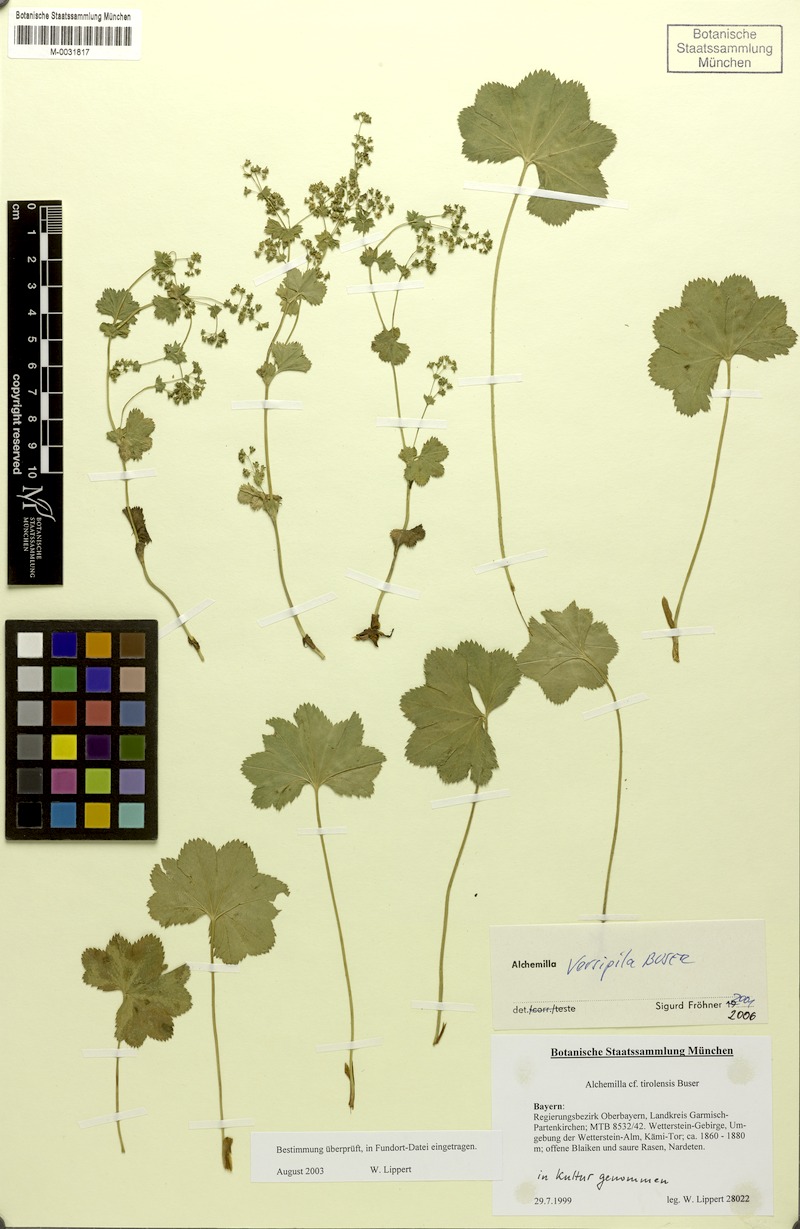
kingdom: Plantae
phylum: Tracheophyta
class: Magnoliopsida
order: Rosales
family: Rosaceae
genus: Alchemilla
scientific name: Alchemilla versipila
